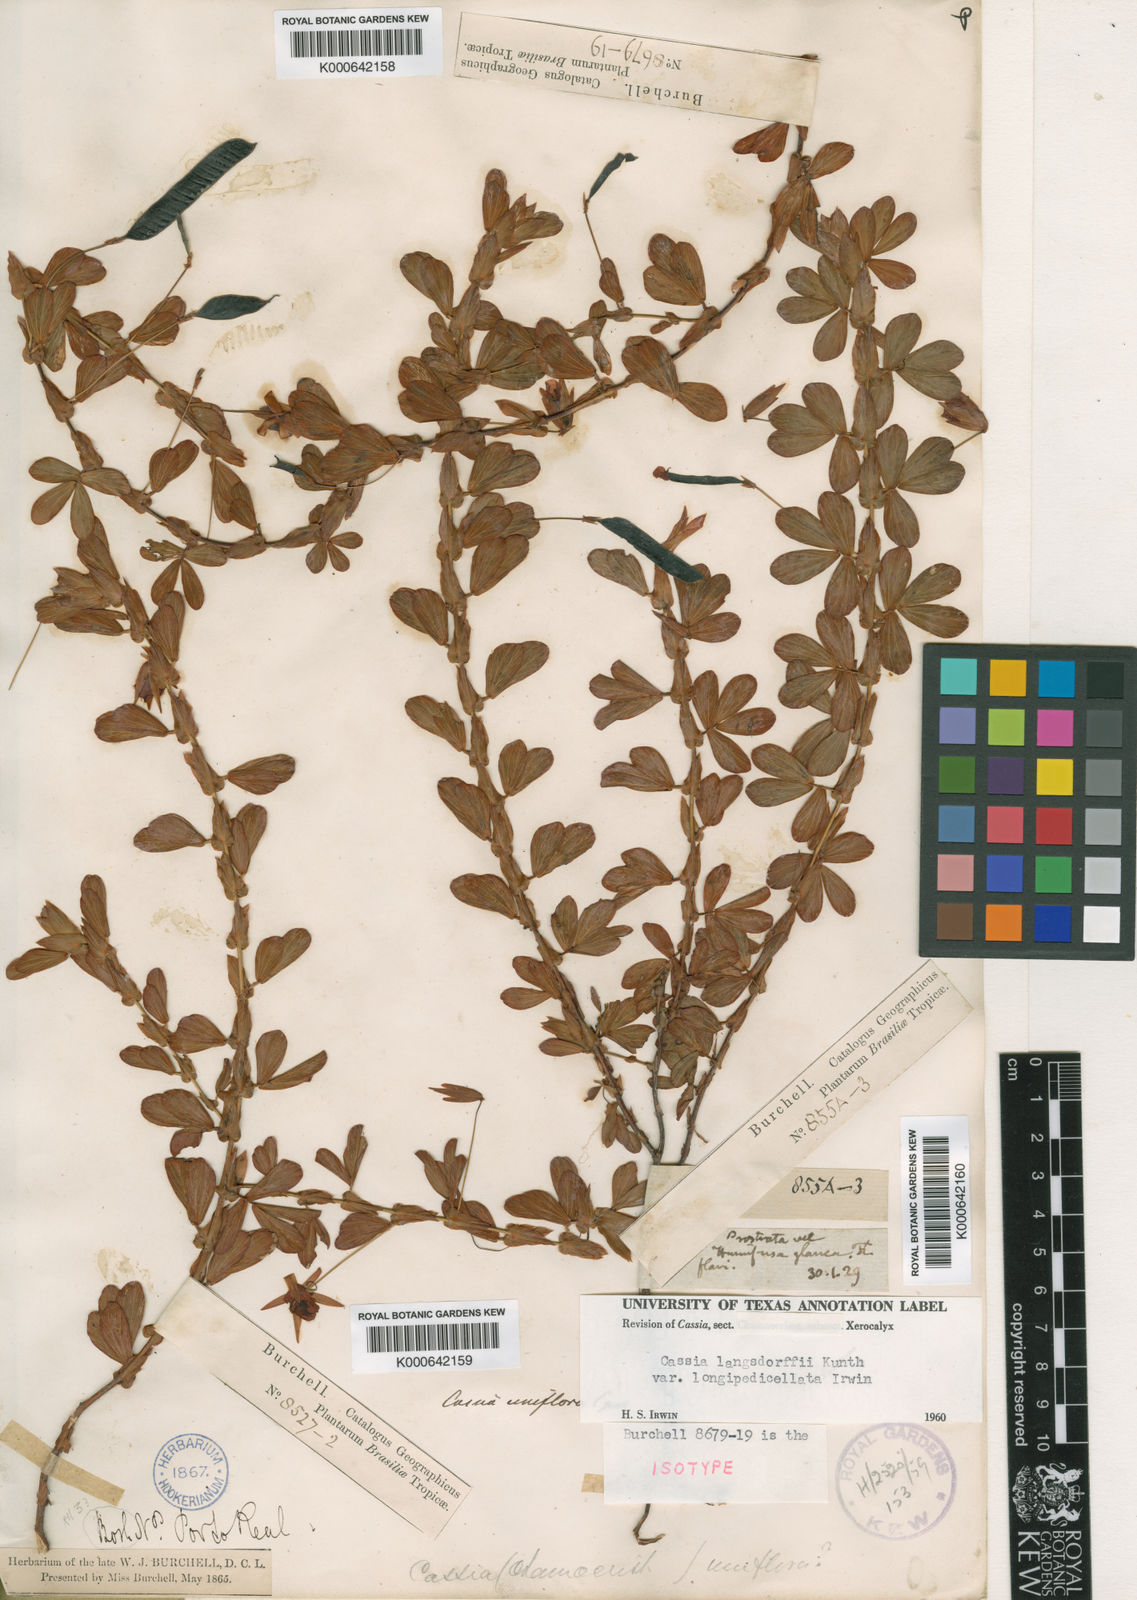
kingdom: Plantae
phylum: Tracheophyta
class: Magnoliopsida
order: Fabales
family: Fabaceae
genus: Chamaecrista
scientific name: Chamaecrista desvauxii
